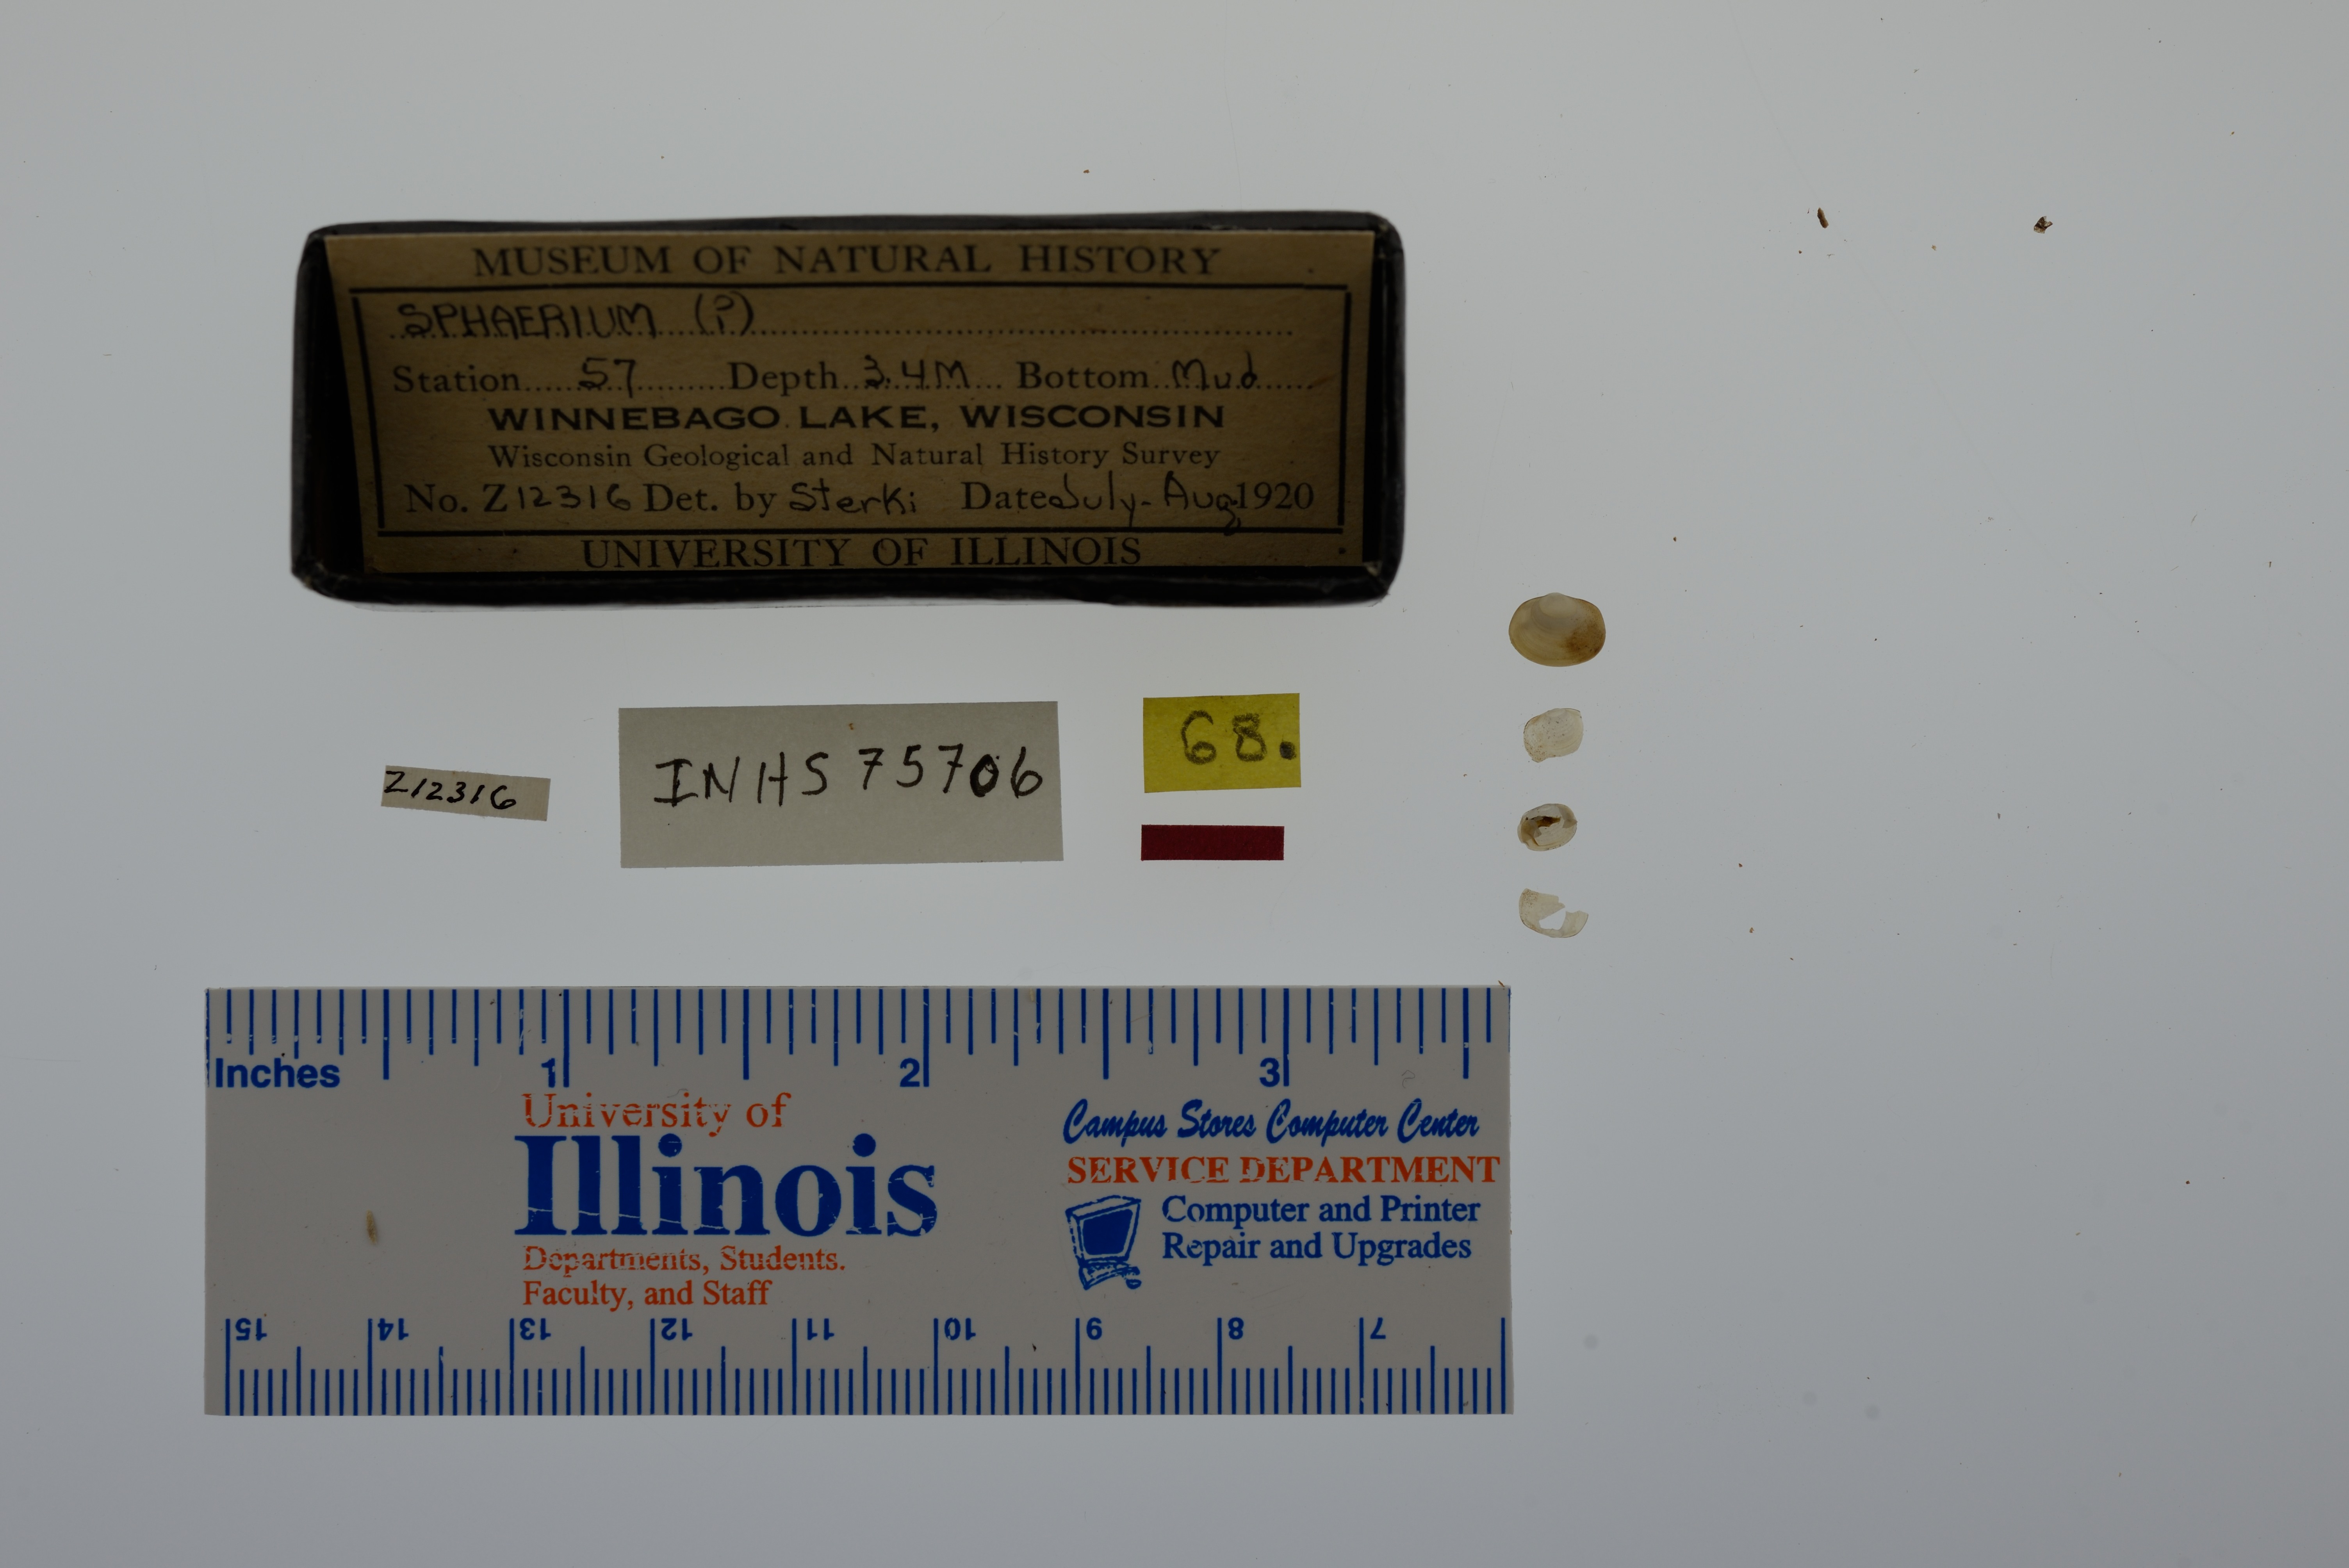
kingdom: Animalia
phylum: Mollusca
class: Bivalvia
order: Sphaeriida
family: Sphaeriidae
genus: Sphaerium
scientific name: Sphaerium
